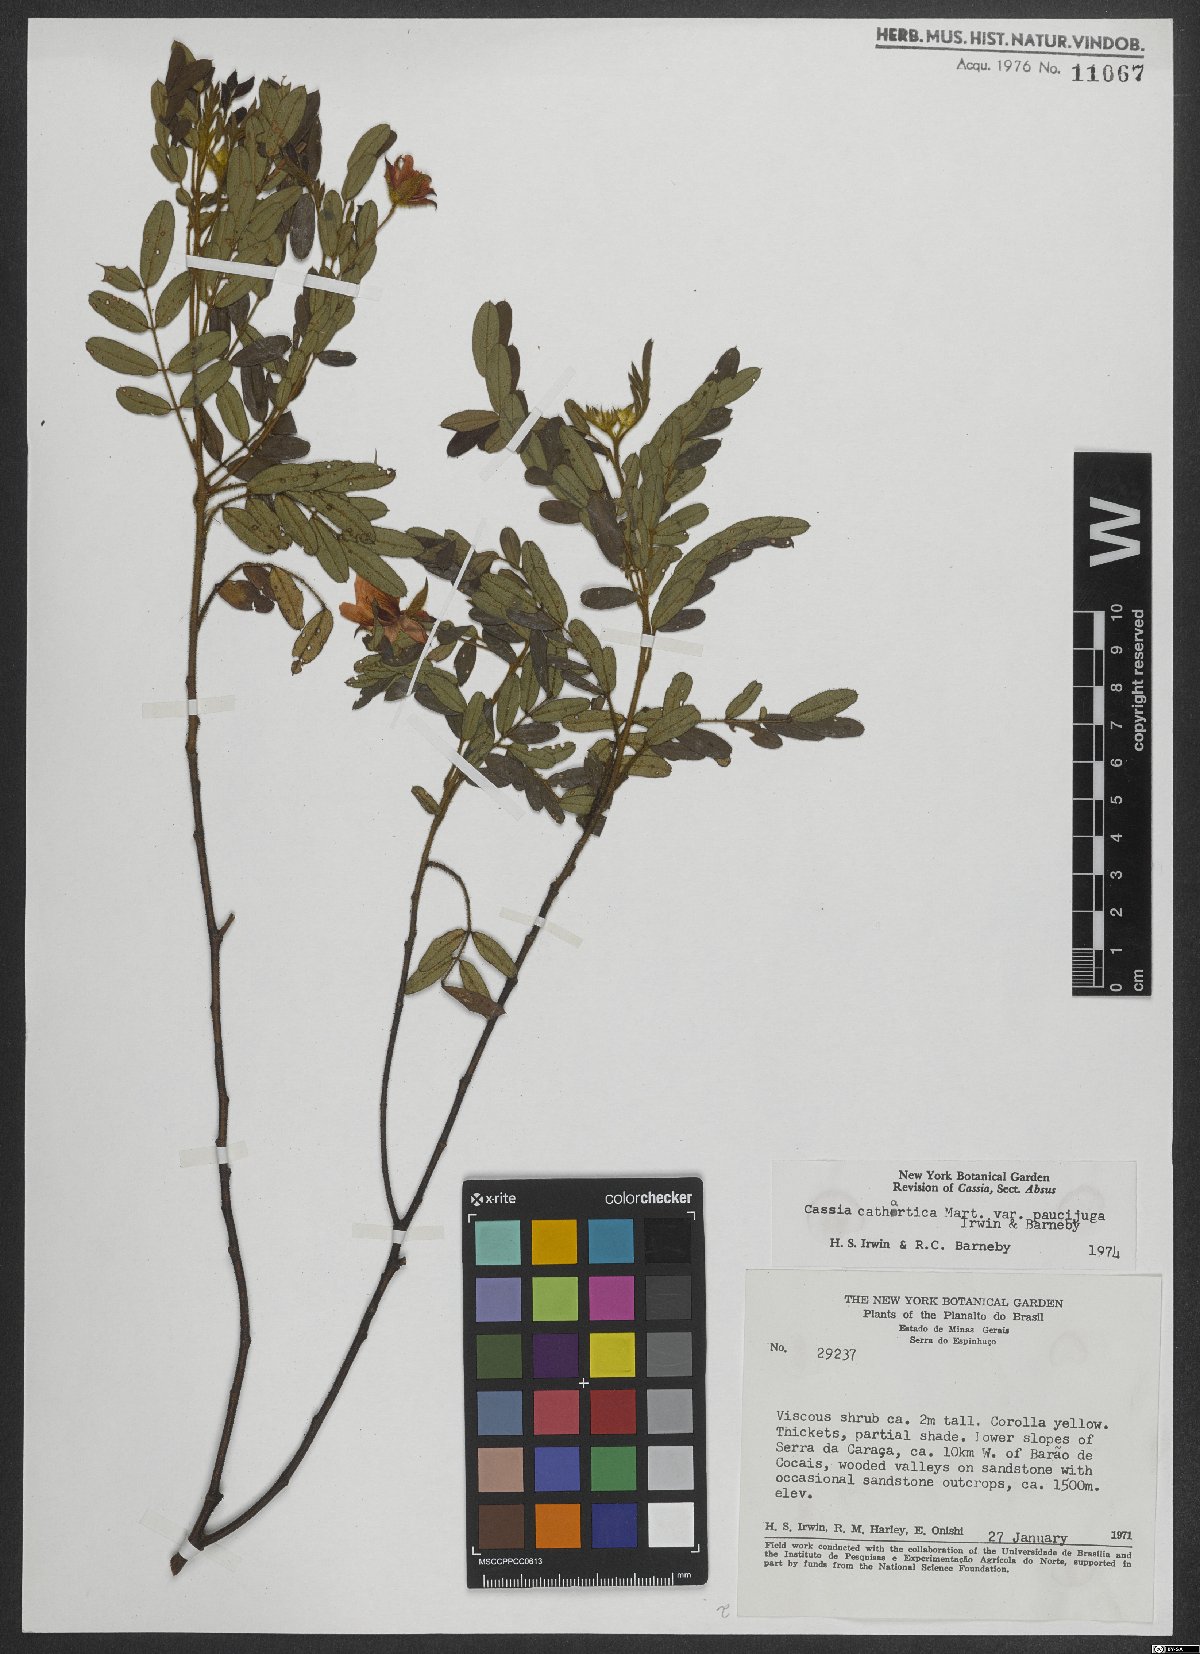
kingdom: Plantae
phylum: Tracheophyta
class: Magnoliopsida
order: Fabales
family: Fabaceae
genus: Chamaecrista
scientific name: Chamaecrista cathartica
